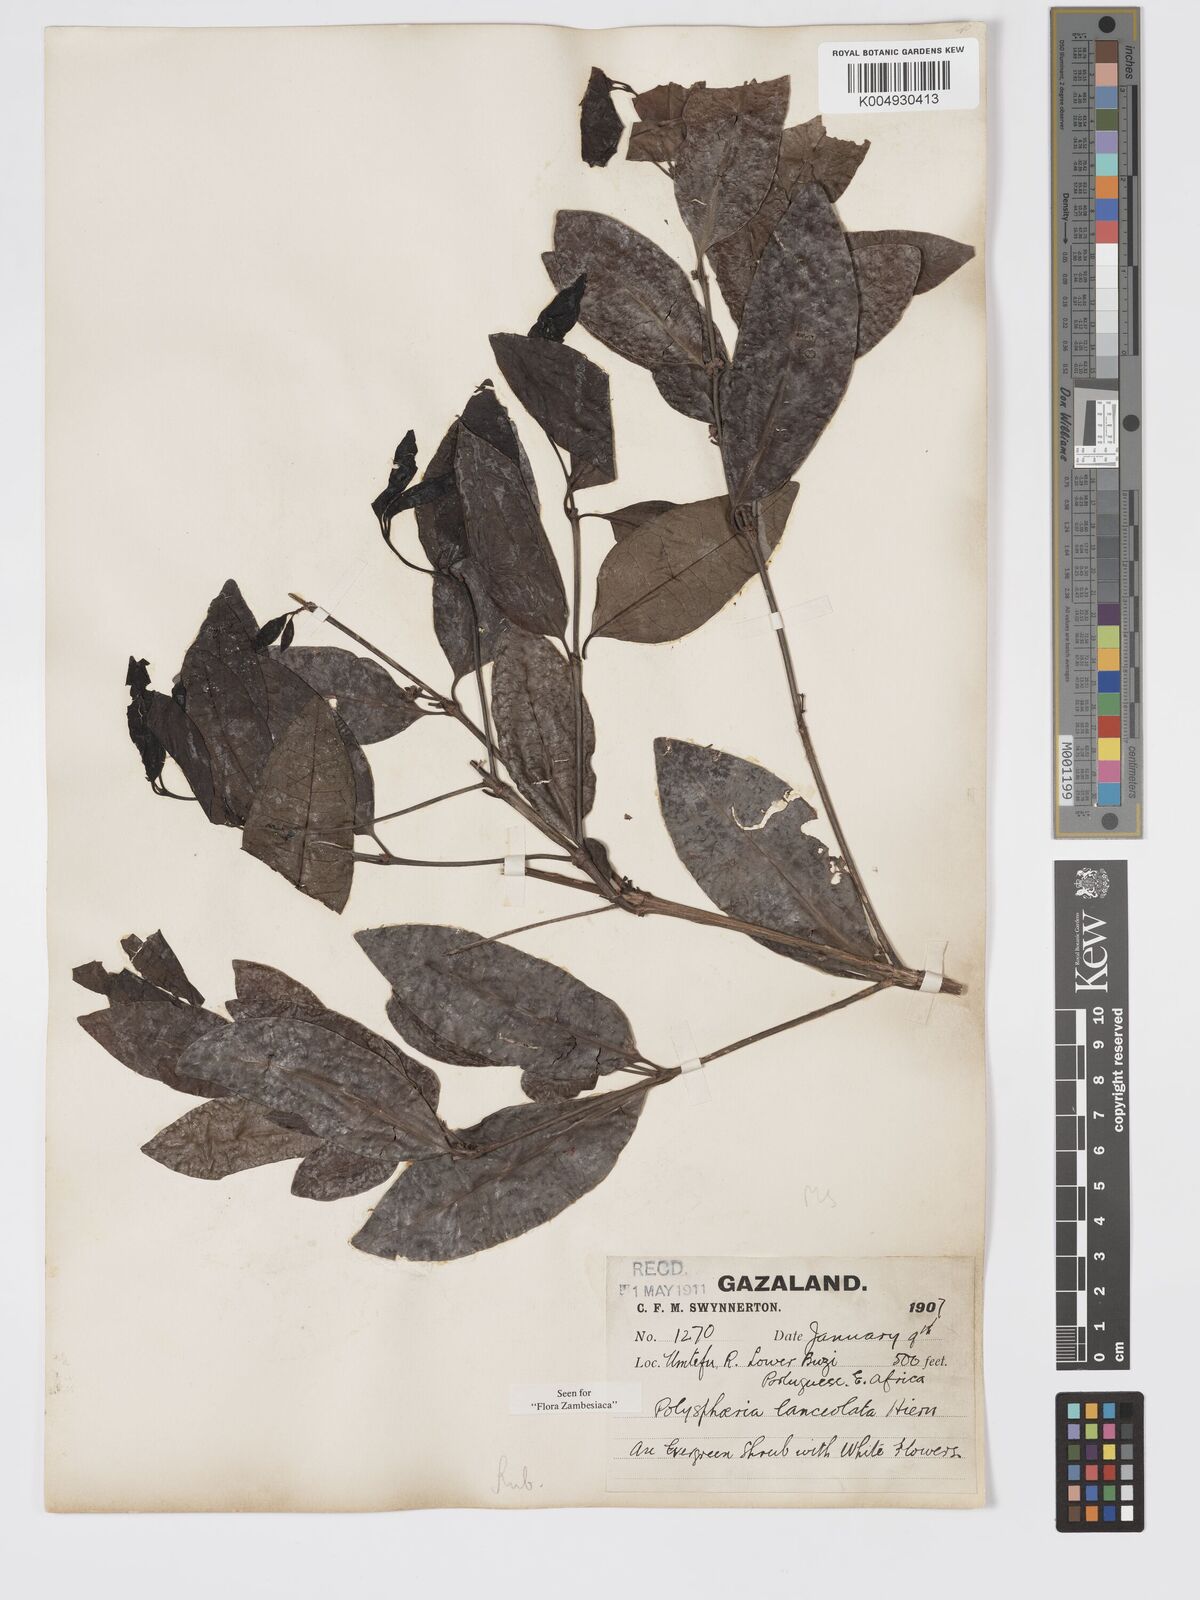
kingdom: Plantae
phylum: Tracheophyta
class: Magnoliopsida
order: Gentianales
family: Rubiaceae
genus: Polysphaeria
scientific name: Polysphaeria lanceolata
